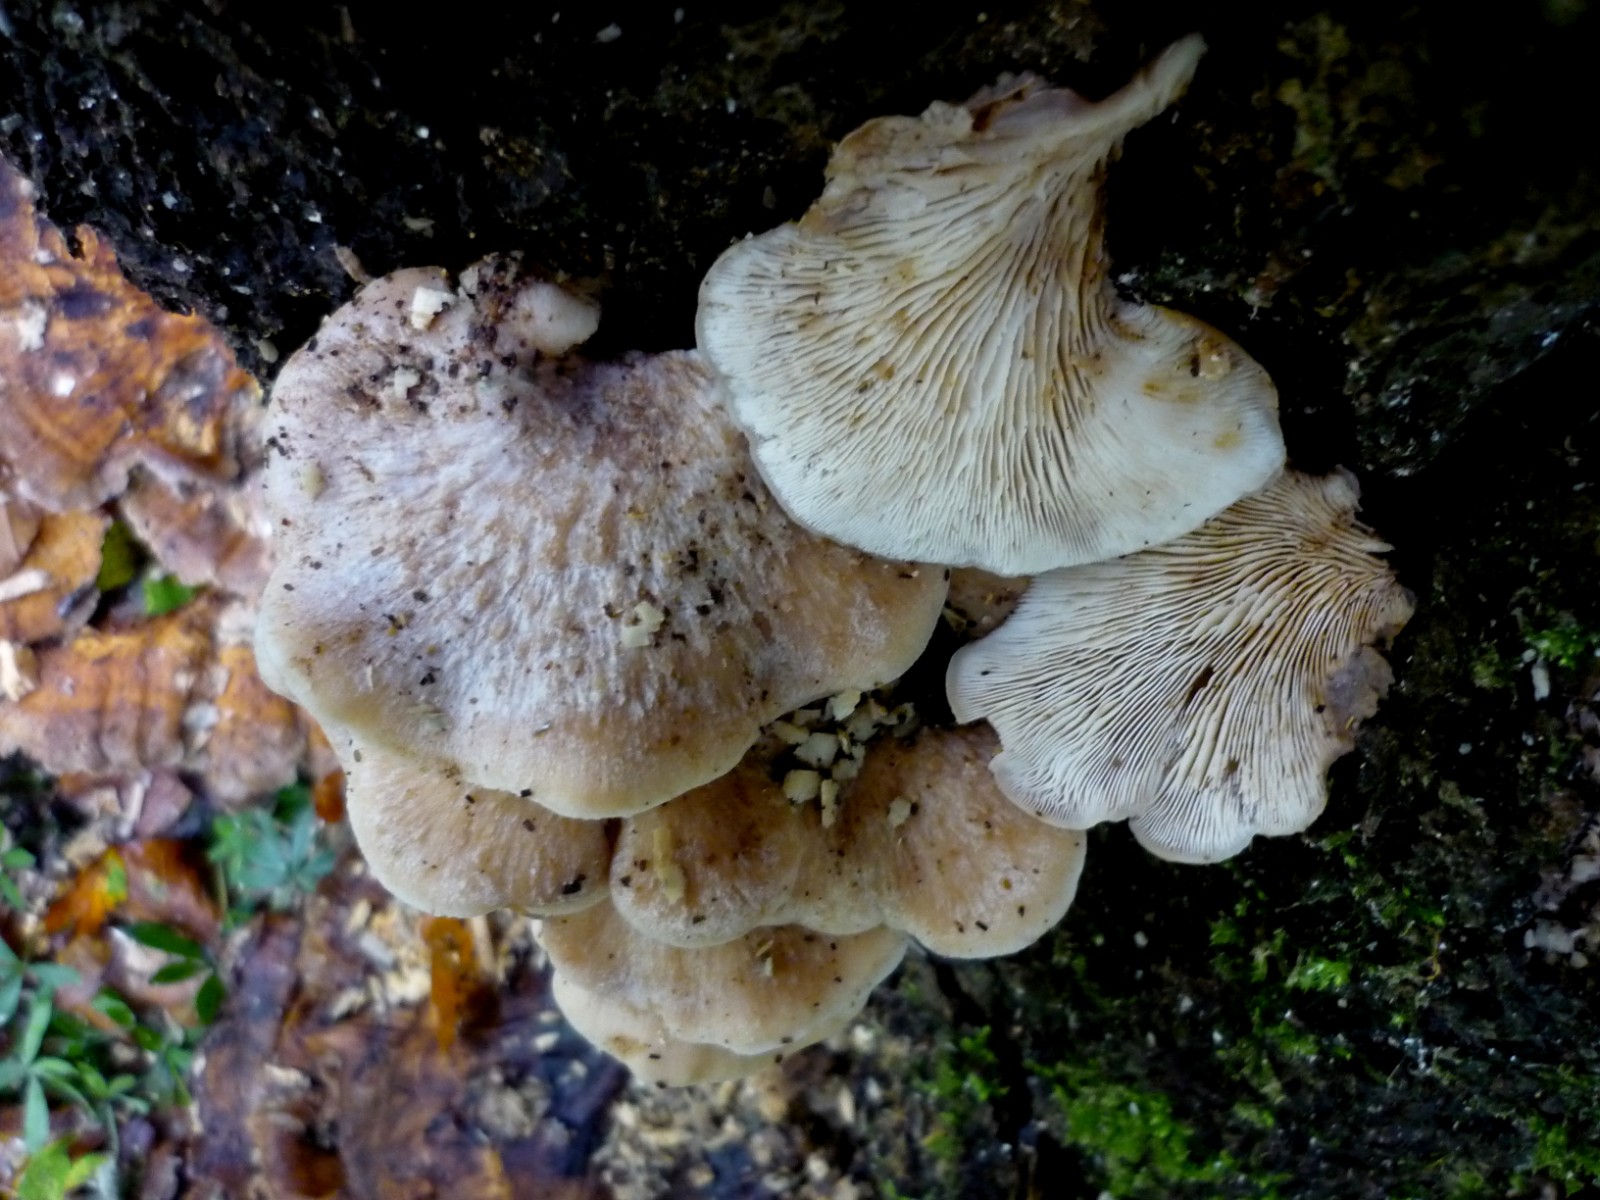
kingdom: Fungi
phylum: Basidiomycota
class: Agaricomycetes
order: Russulales
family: Auriscalpiaceae
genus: Lentinellus
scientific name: Lentinellus ursinus
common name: børstehåret savbladhat
